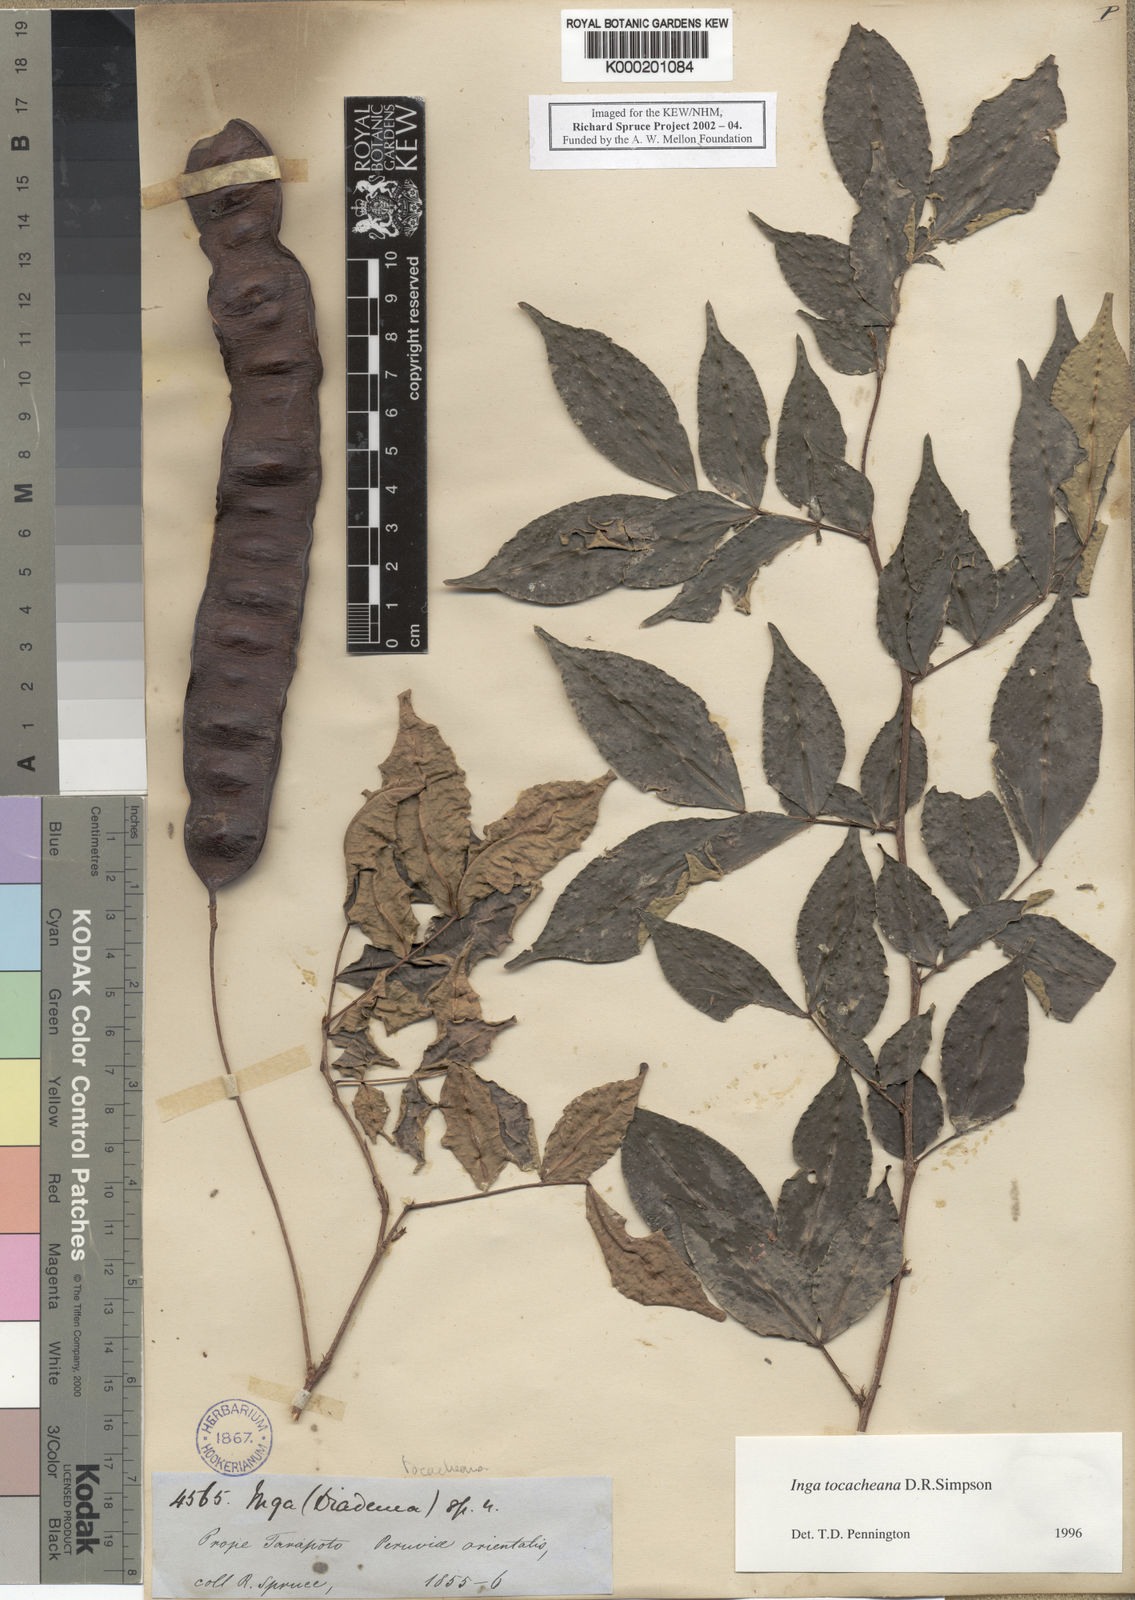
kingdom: Plantae
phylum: Tracheophyta
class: Magnoliopsida
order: Fabales
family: Fabaceae
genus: Inga
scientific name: Inga tocacheana
